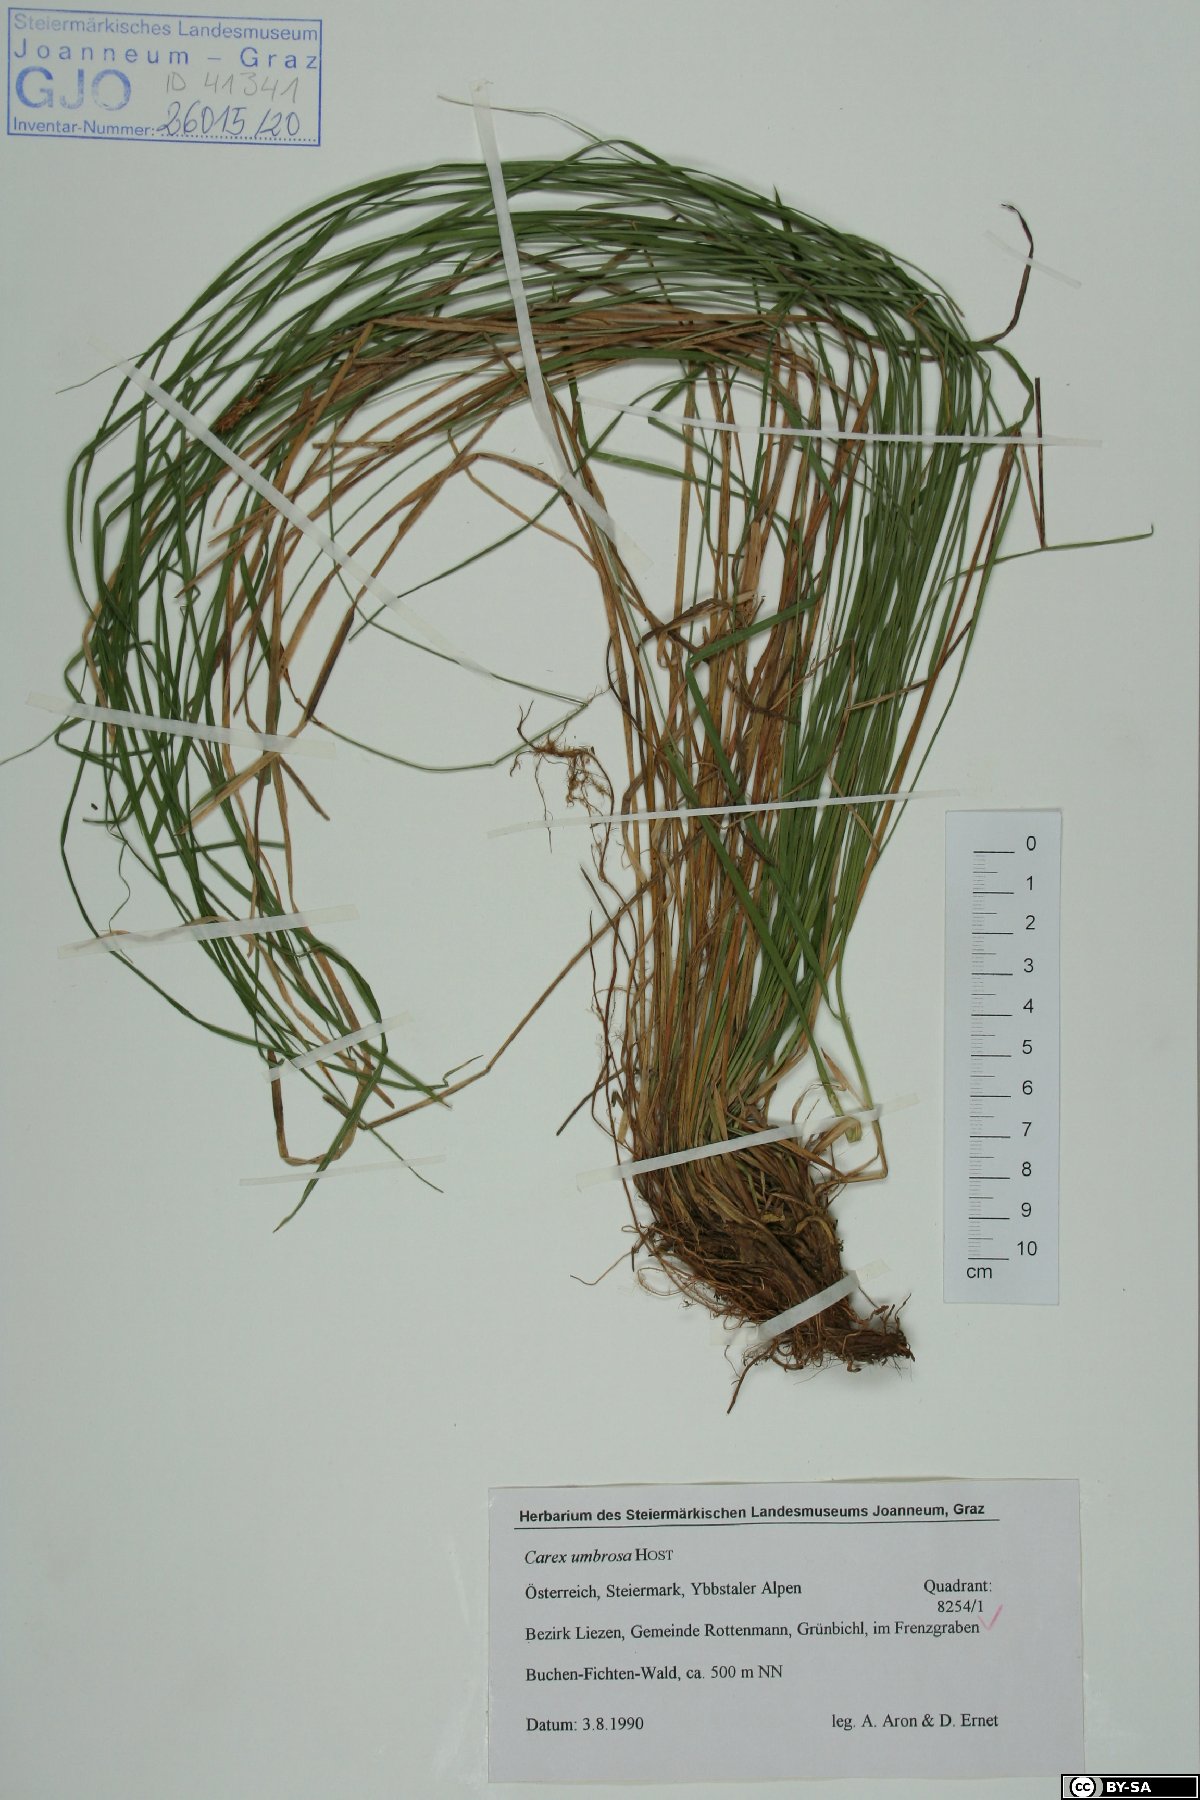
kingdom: Plantae
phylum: Tracheophyta
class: Liliopsida
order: Poales
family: Cyperaceae
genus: Carex
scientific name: Carex umbrosa
